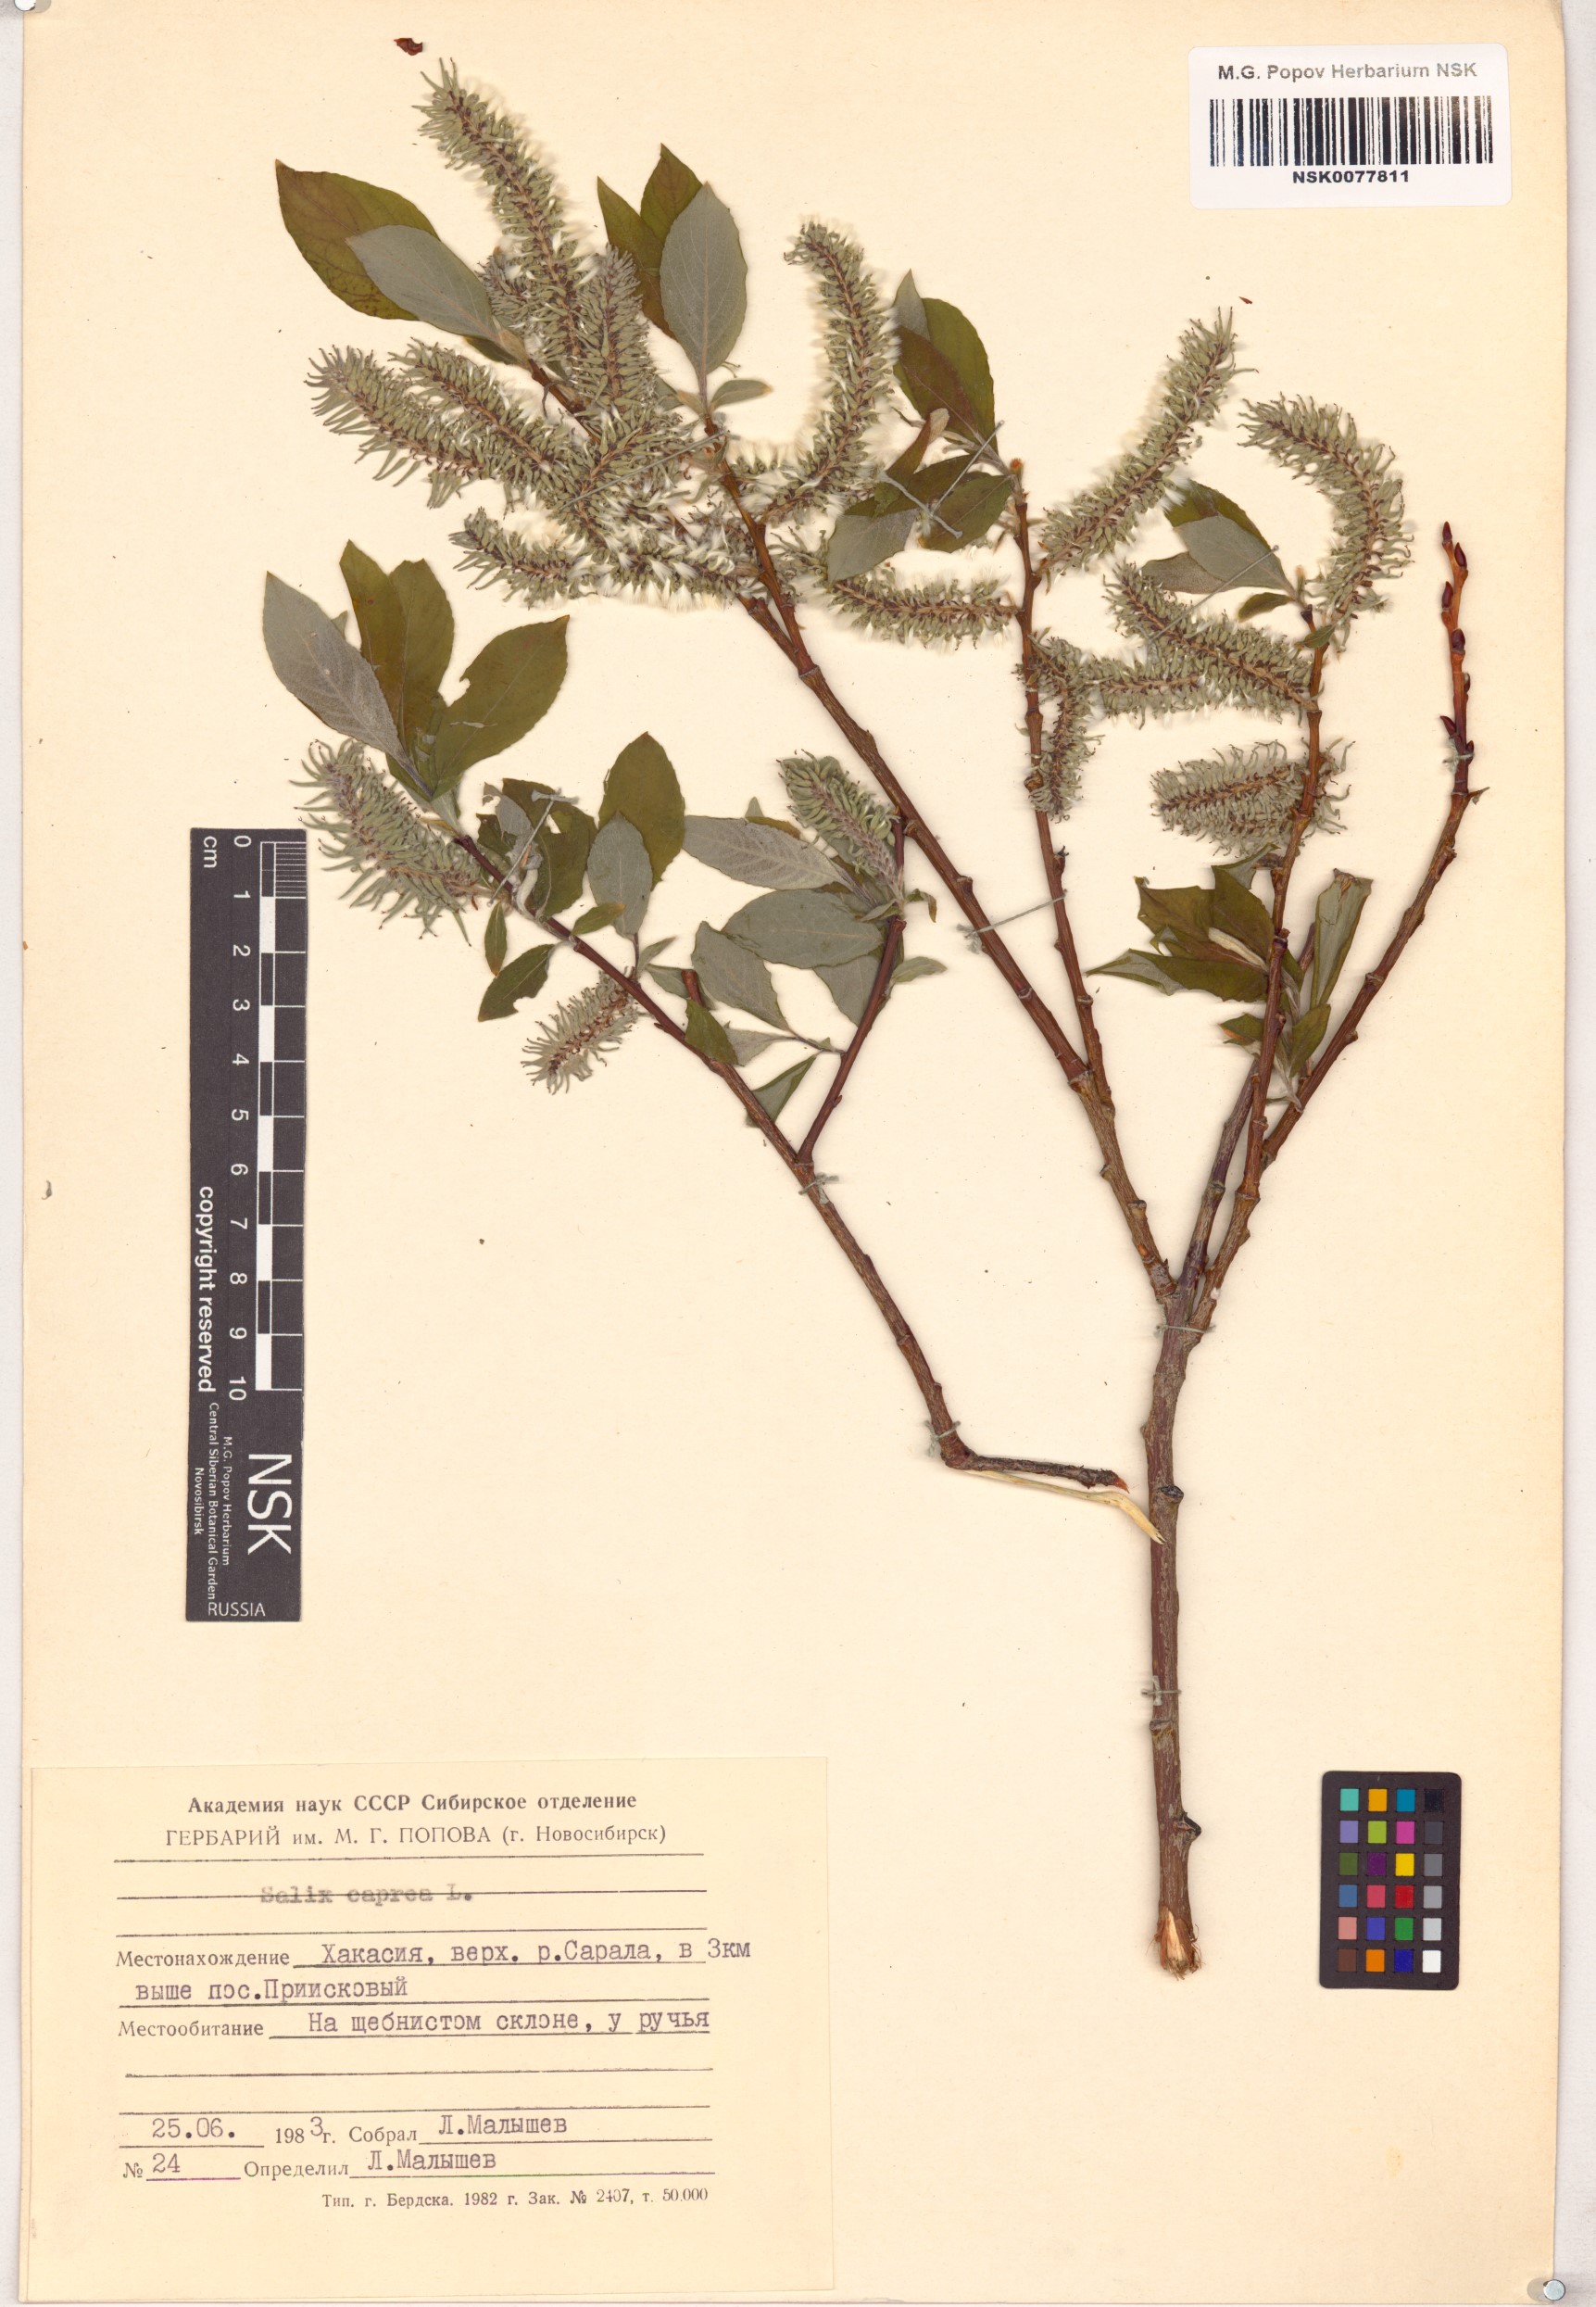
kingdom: Plantae
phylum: Tracheophyta
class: Magnoliopsida
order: Malpighiales
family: Salicaceae
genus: Salix
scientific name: Salix caprea
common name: Goat willow
